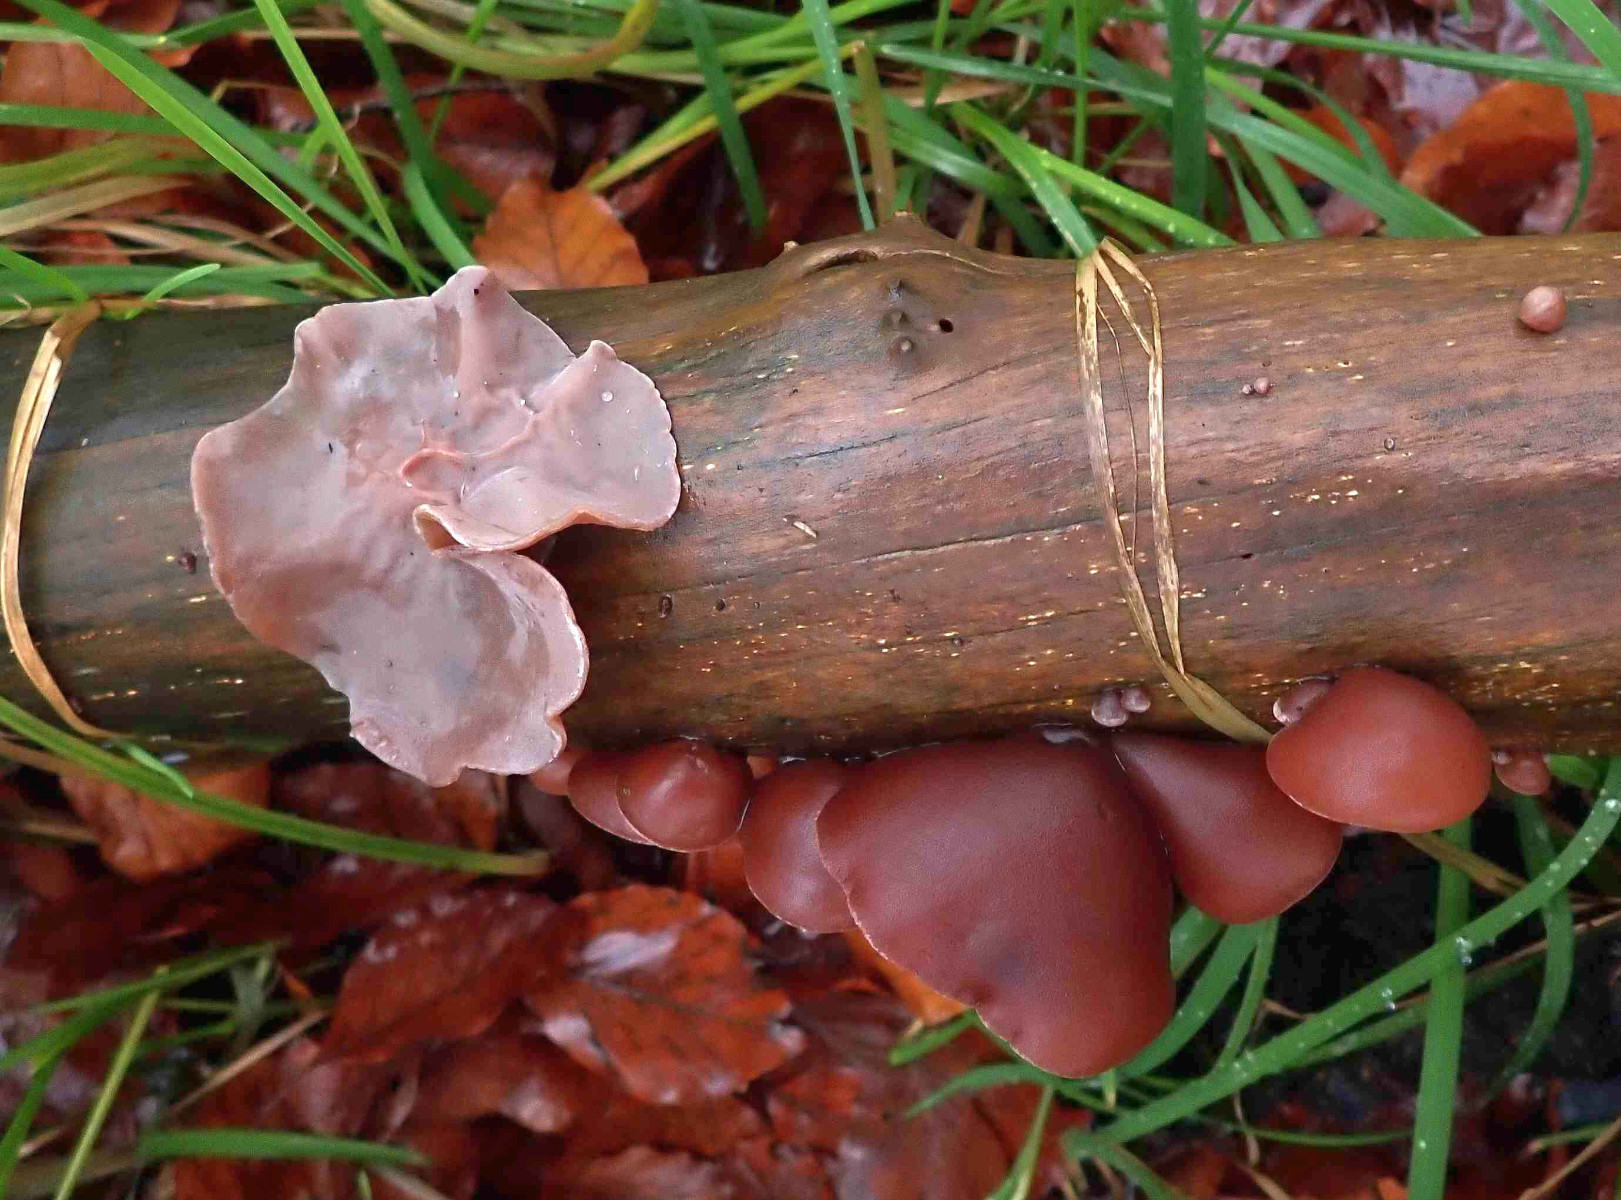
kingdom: Fungi
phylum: Basidiomycota
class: Agaricomycetes
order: Auriculariales
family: Auriculariaceae
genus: Auricularia
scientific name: Auricularia auricula-judae
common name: almindelig judasøre
